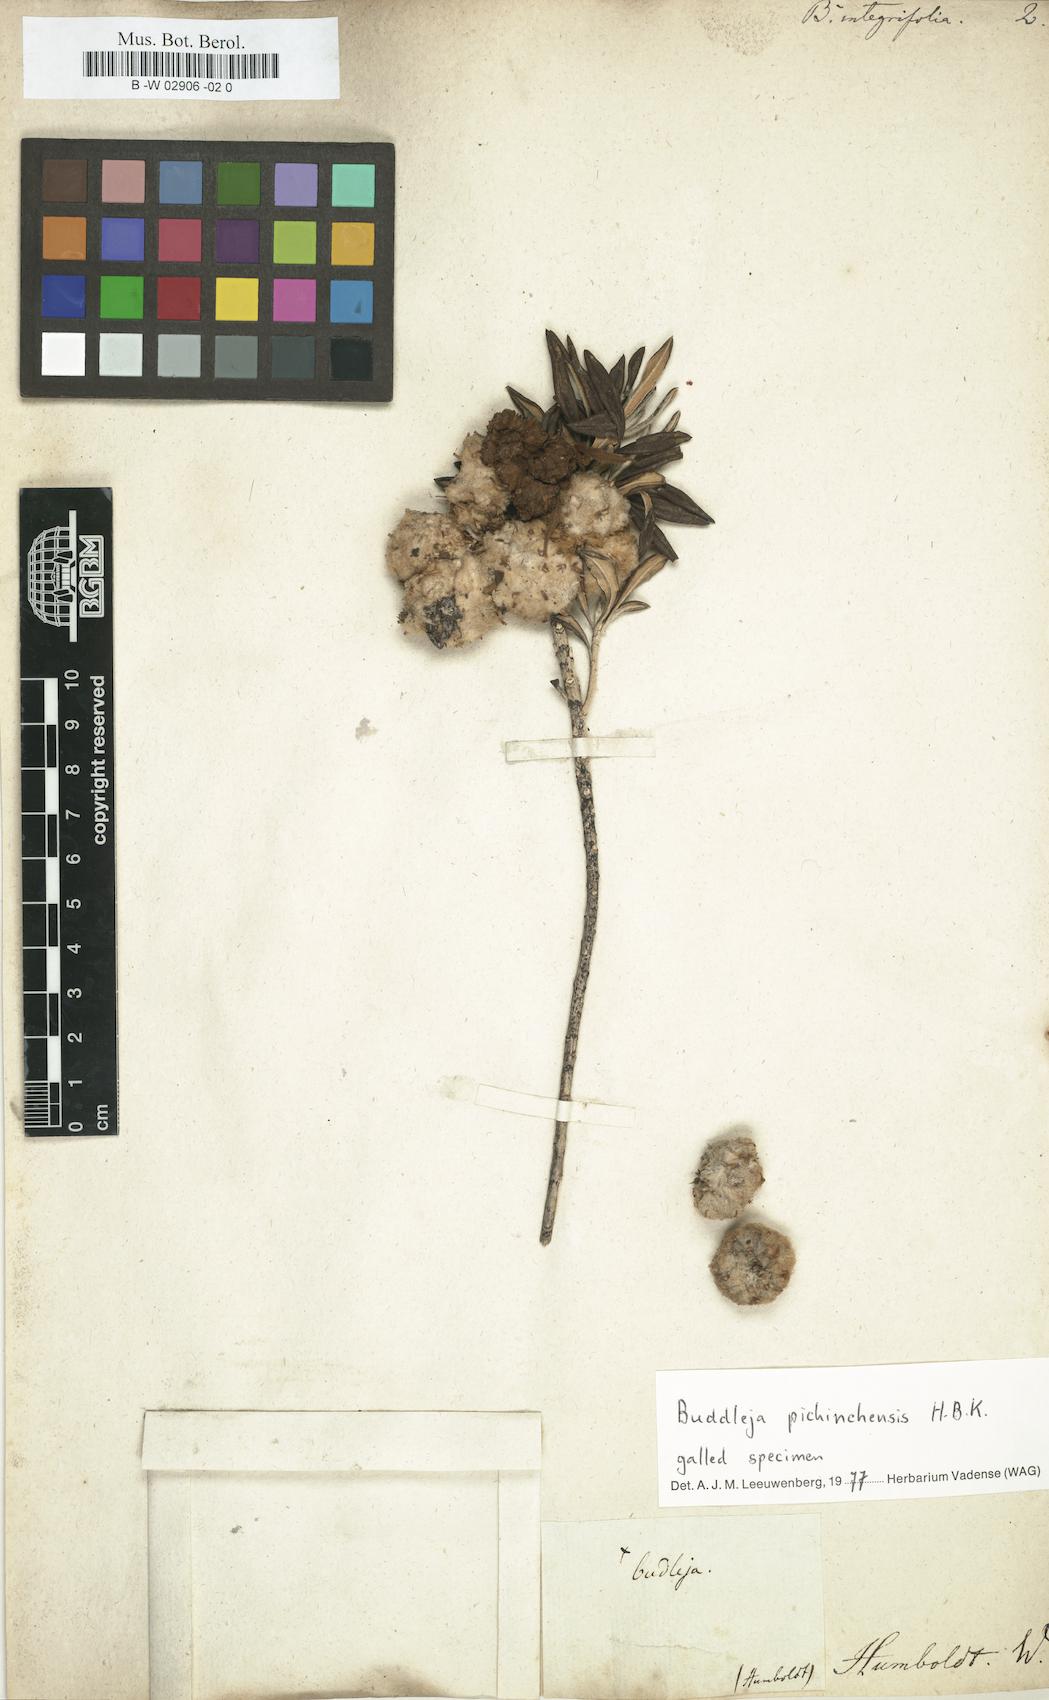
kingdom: Plantae
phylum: Tracheophyta
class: Magnoliopsida
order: Lamiales
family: Scrophulariaceae
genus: Buddleja
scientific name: Buddleja parviflora
